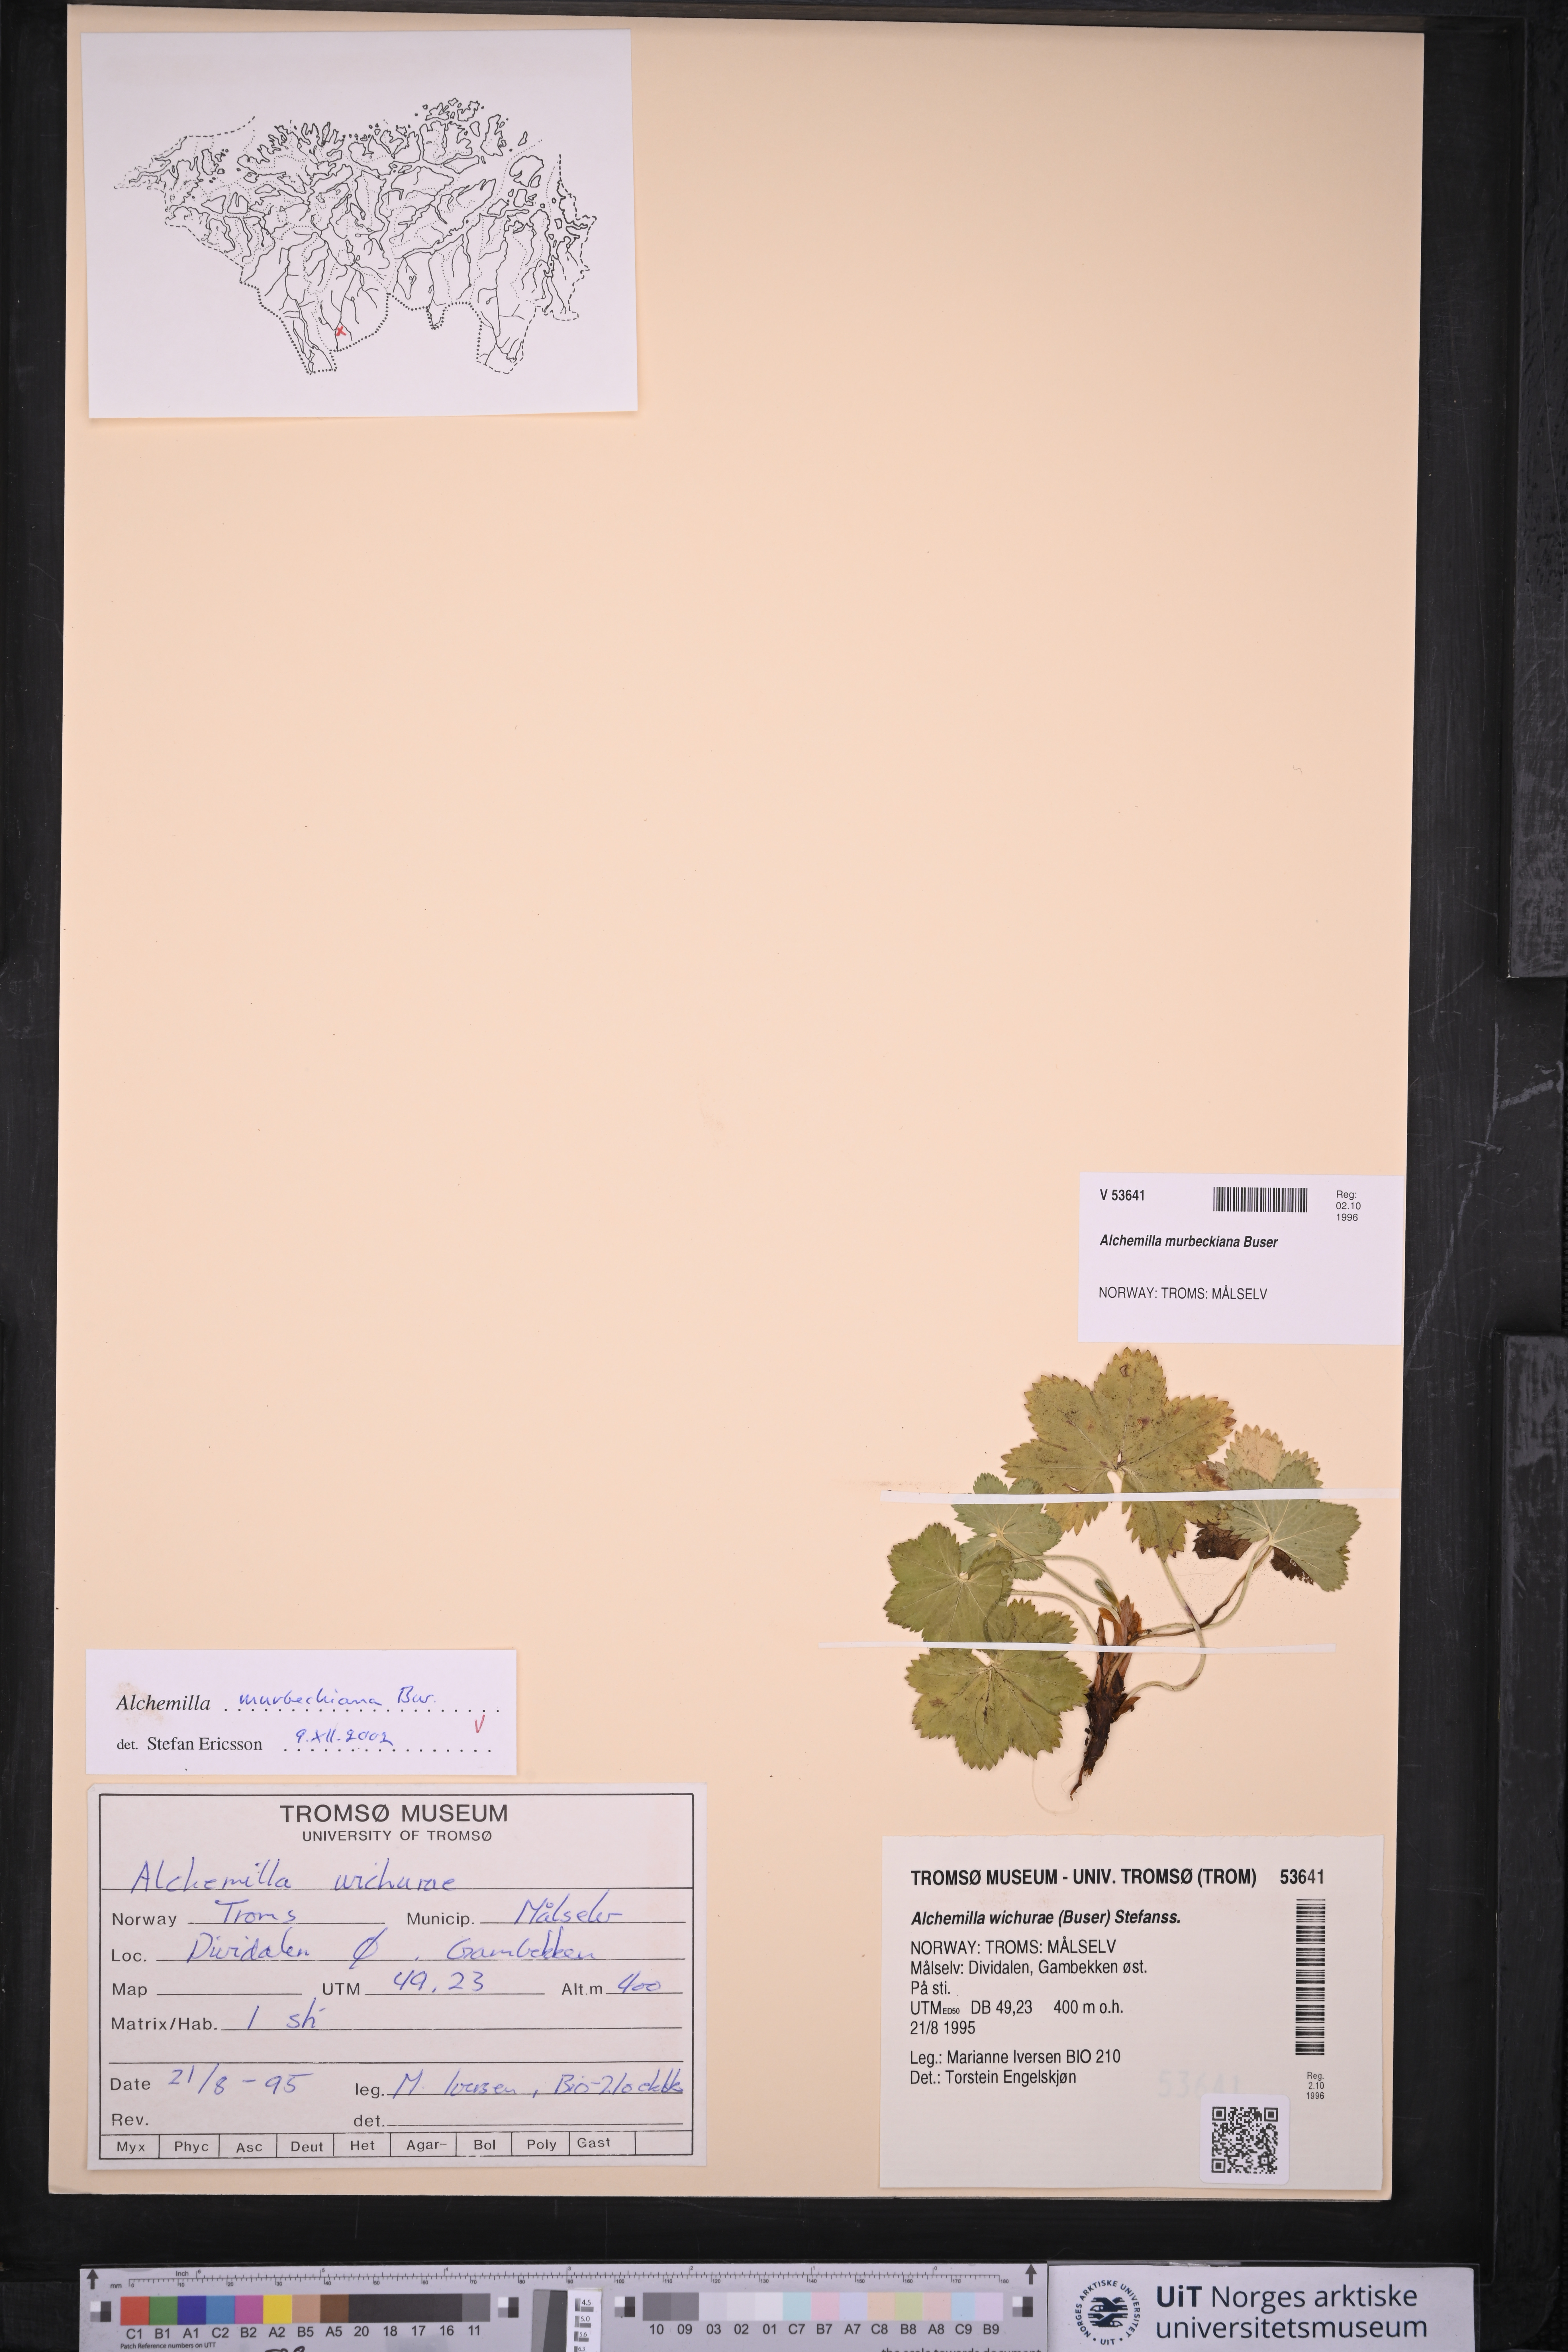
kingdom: Plantae
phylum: Tracheophyta
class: Magnoliopsida
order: Rosales
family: Rosaceae
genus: Alchemilla
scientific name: Alchemilla murbeckiana
